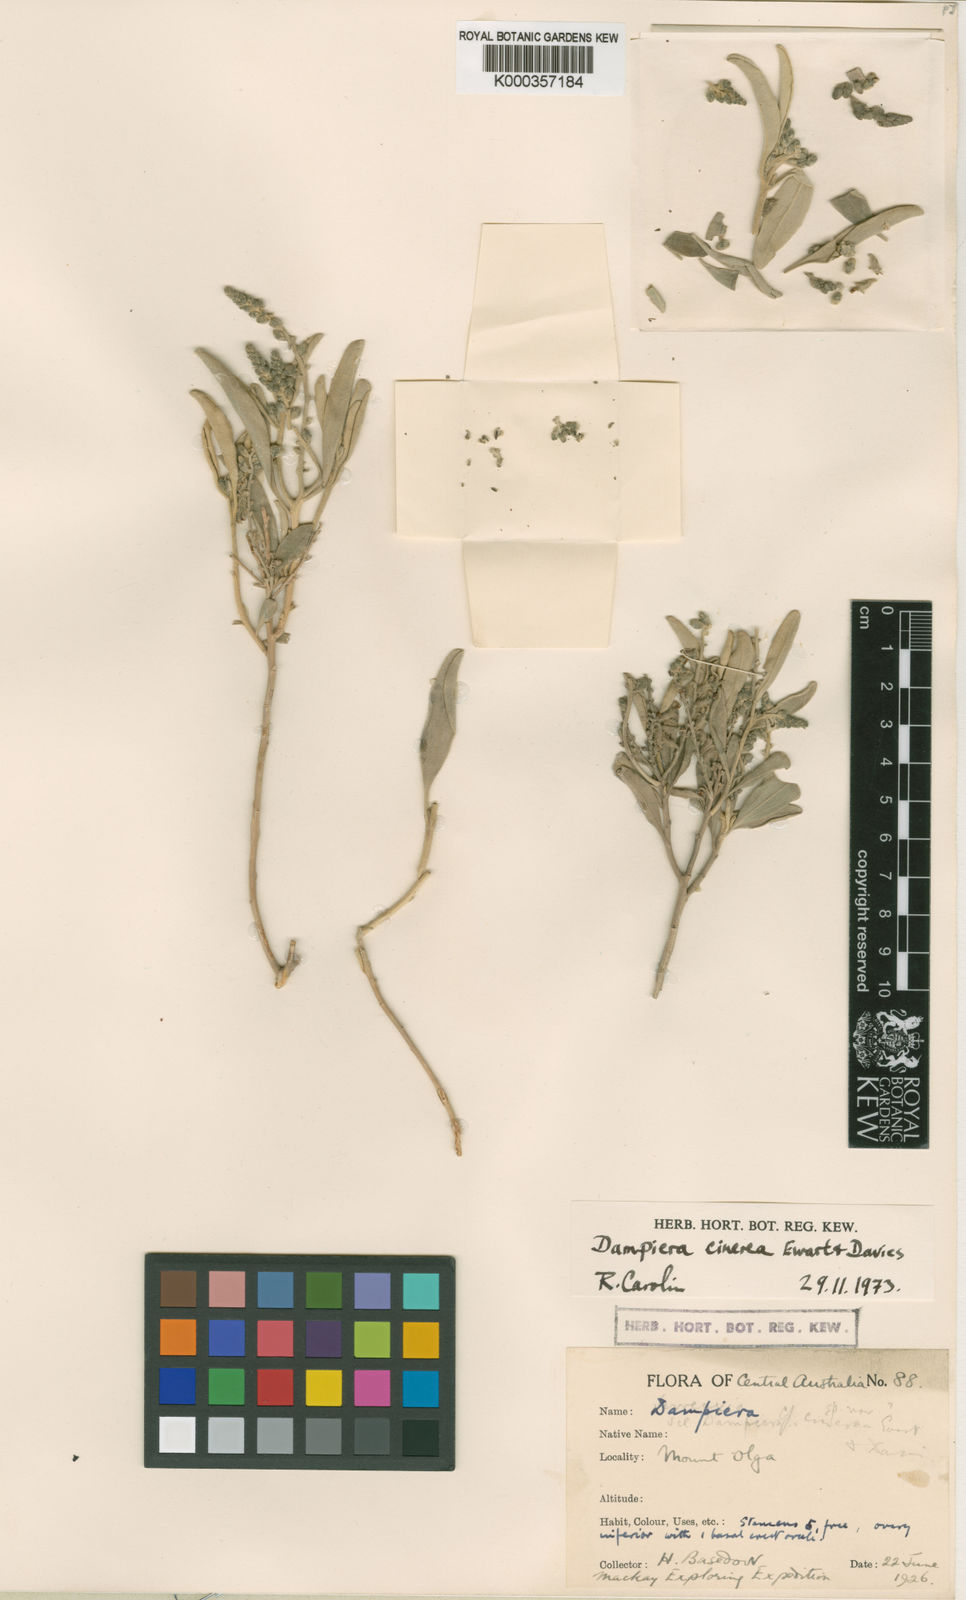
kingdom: Plantae
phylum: Tracheophyta
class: Magnoliopsida
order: Asterales
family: Goodeniaceae
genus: Dampiera
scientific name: Dampiera cinerea
